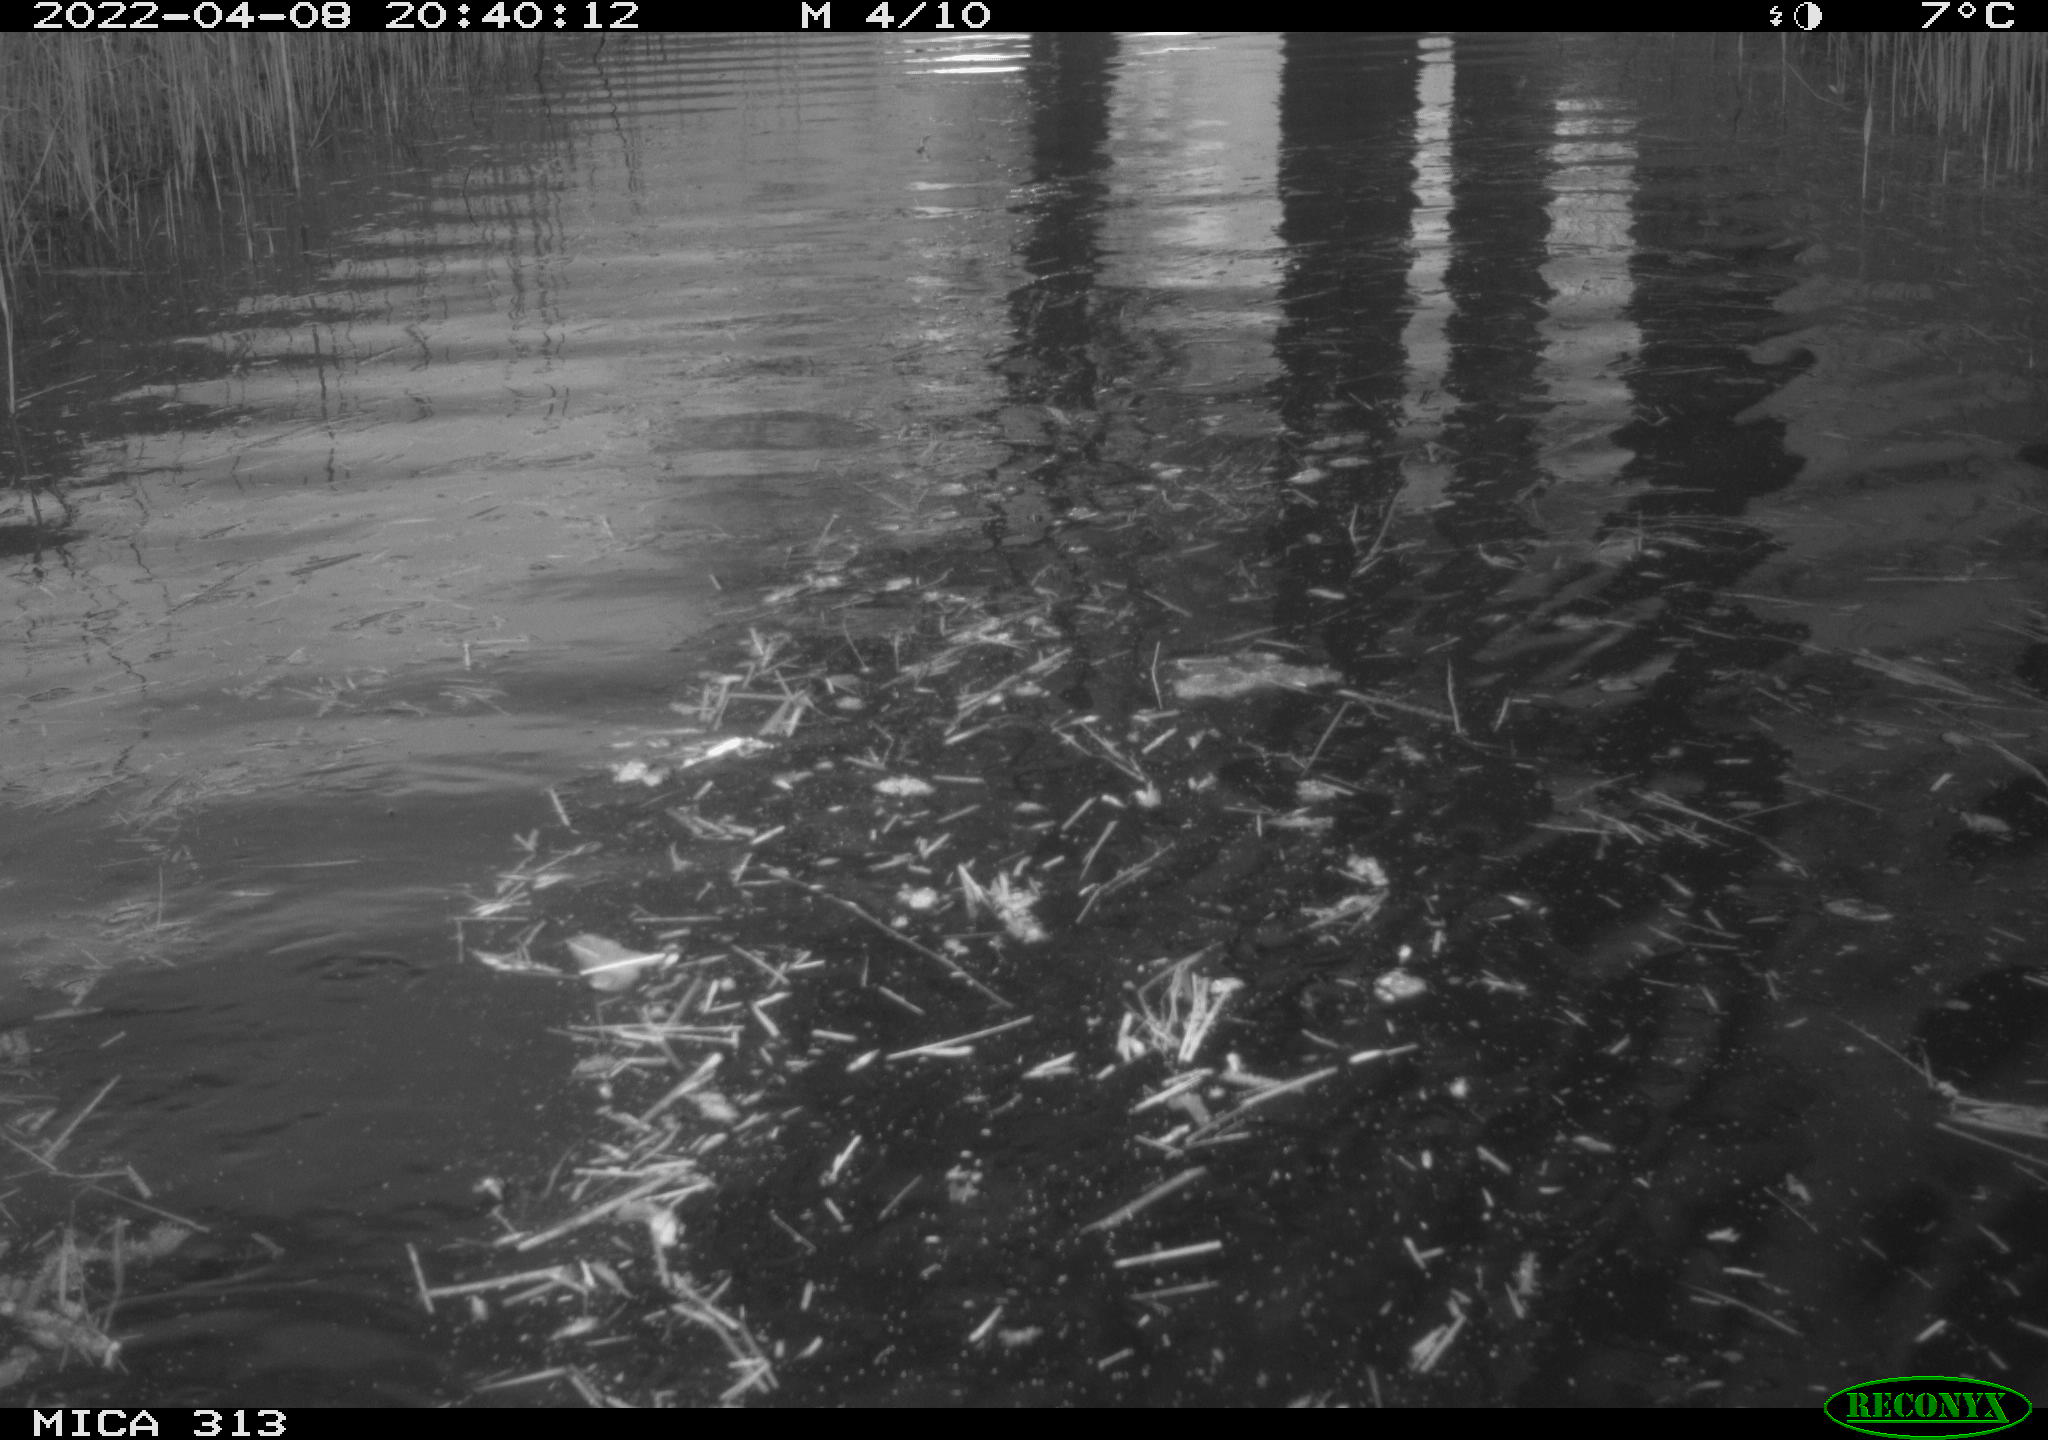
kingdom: Animalia
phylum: Chordata
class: Aves
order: Anseriformes
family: Anatidae
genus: Anas
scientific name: Anas platyrhynchos
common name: Mallard
